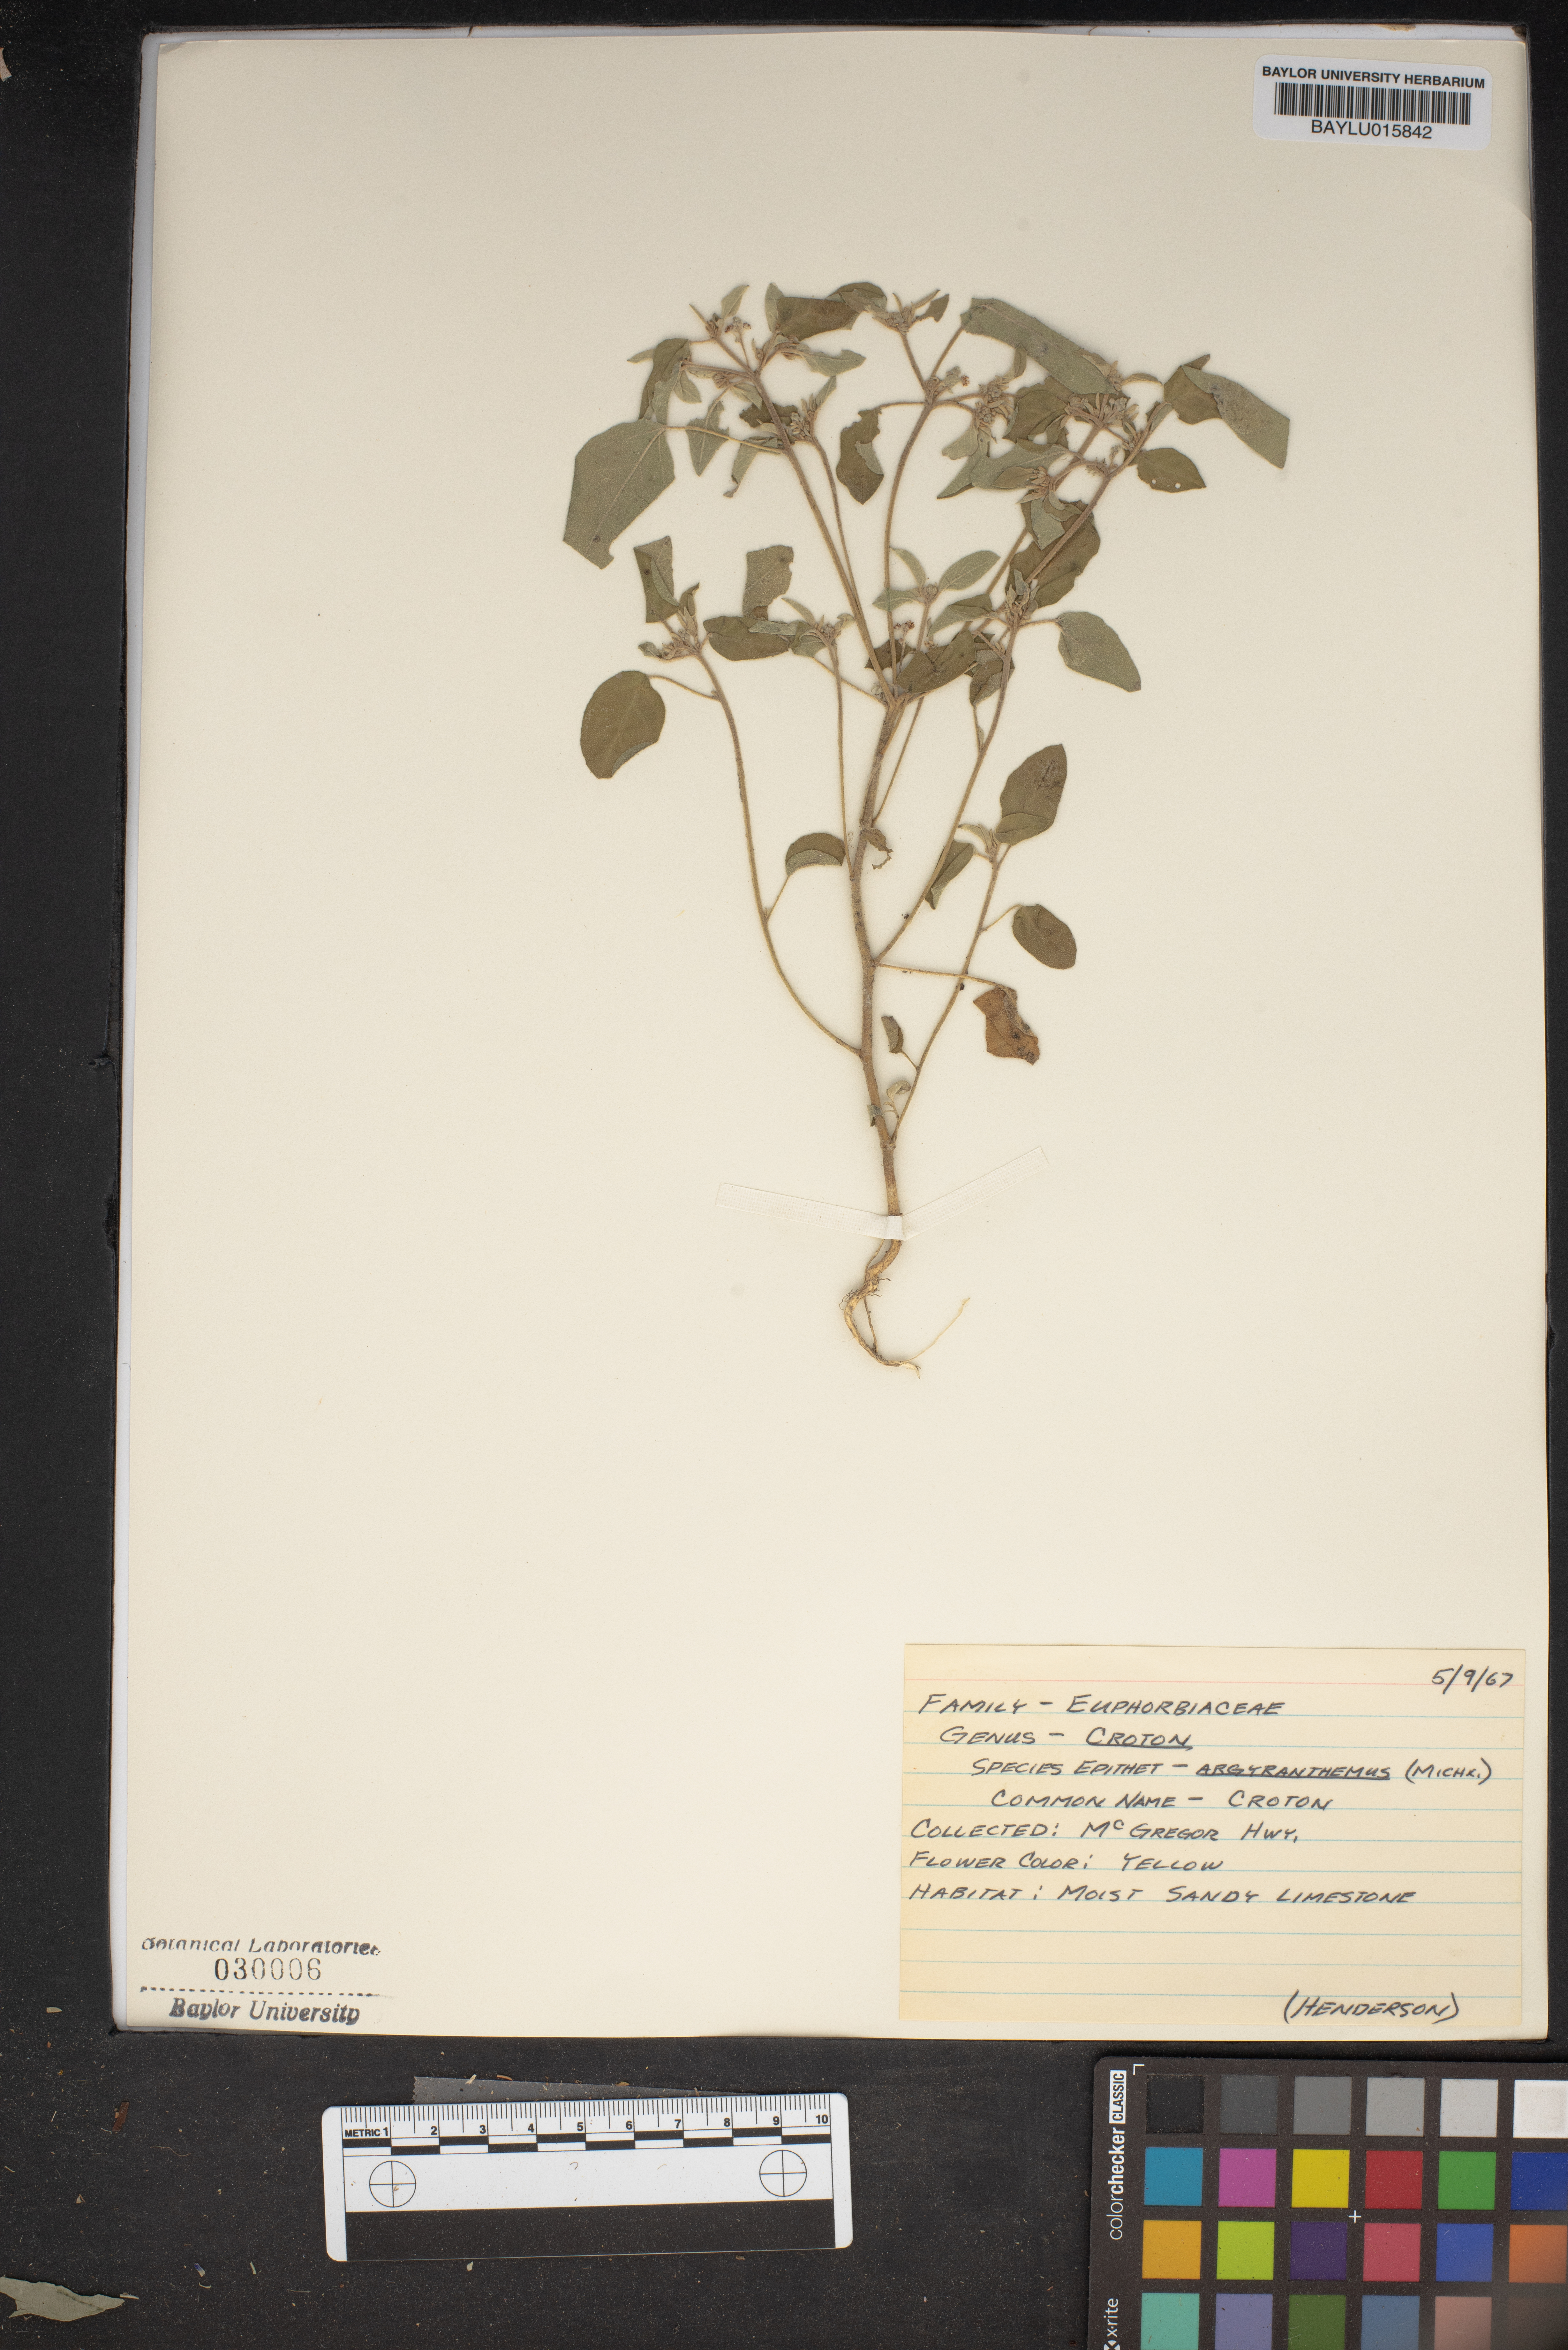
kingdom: Plantae
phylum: Tracheophyta
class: Magnoliopsida
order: Malpighiales
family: Euphorbiaceae
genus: Croton
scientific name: Croton argyranthemus
